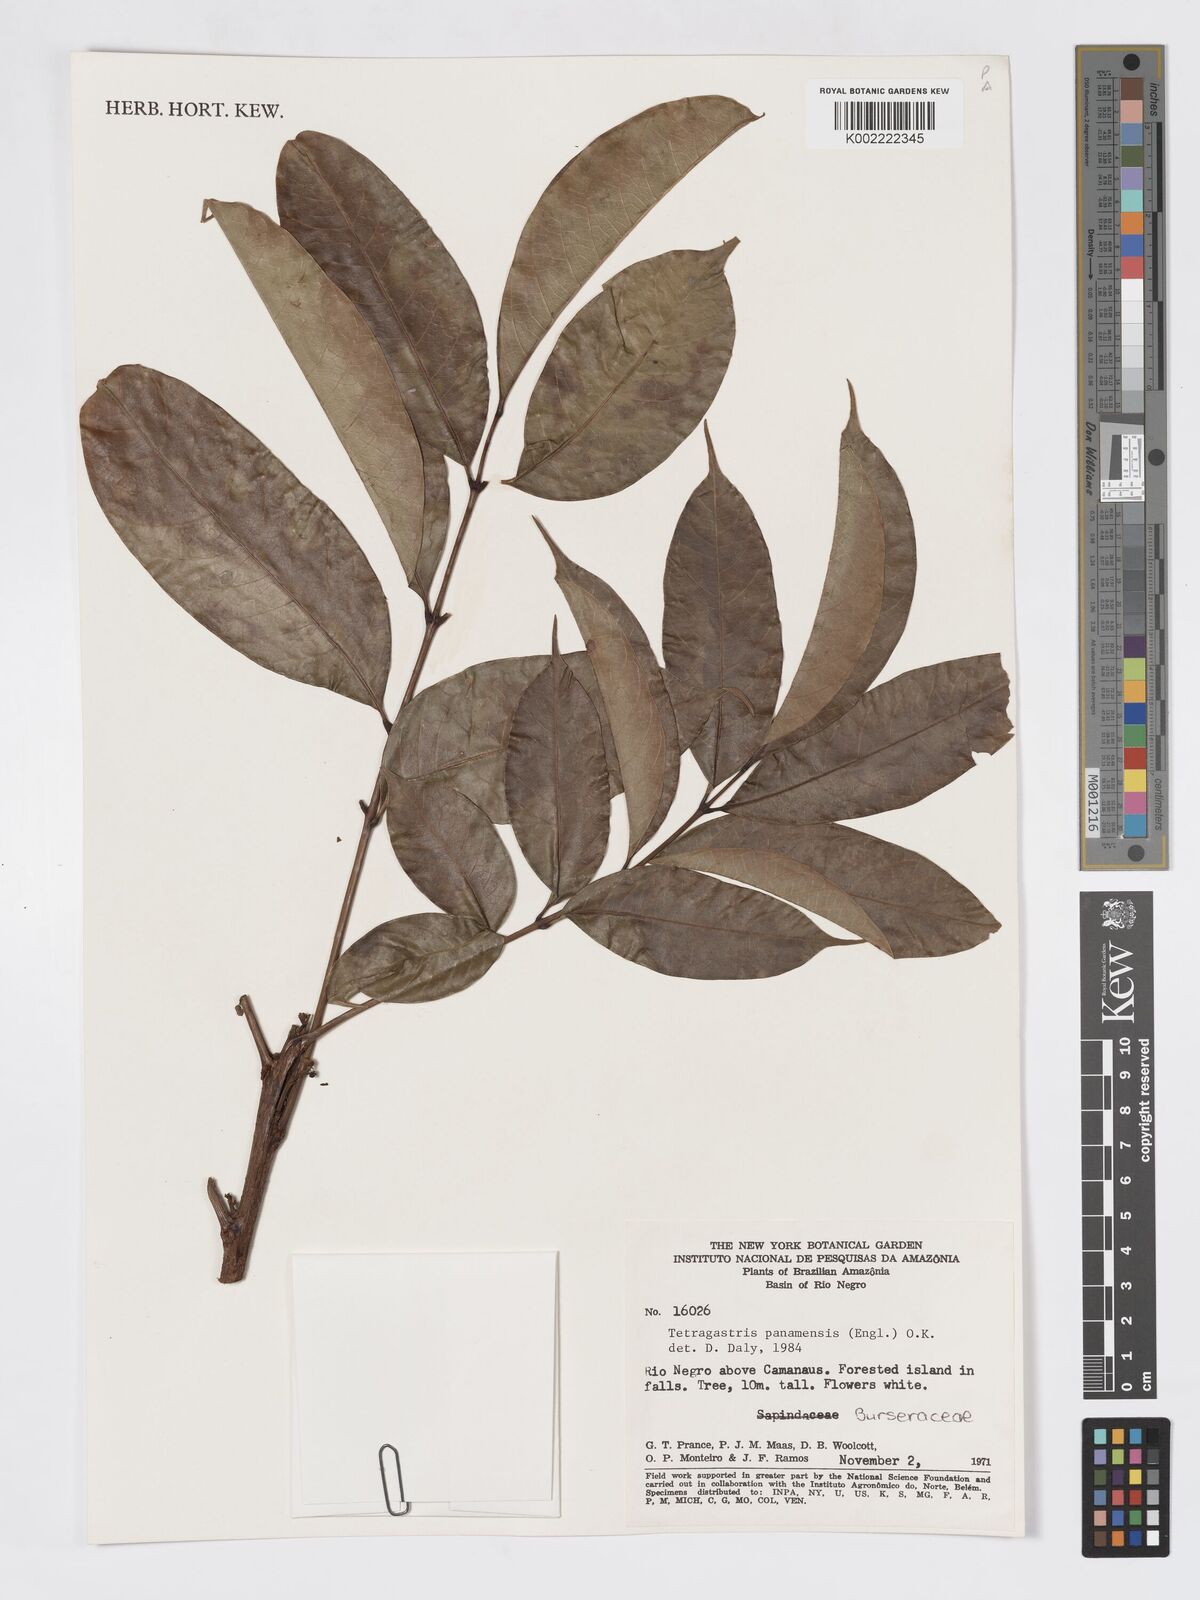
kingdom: Plantae
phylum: Tracheophyta
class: Magnoliopsida
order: Sapindales
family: Burseraceae
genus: Tetragastris
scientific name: Tetragastris panamensis
